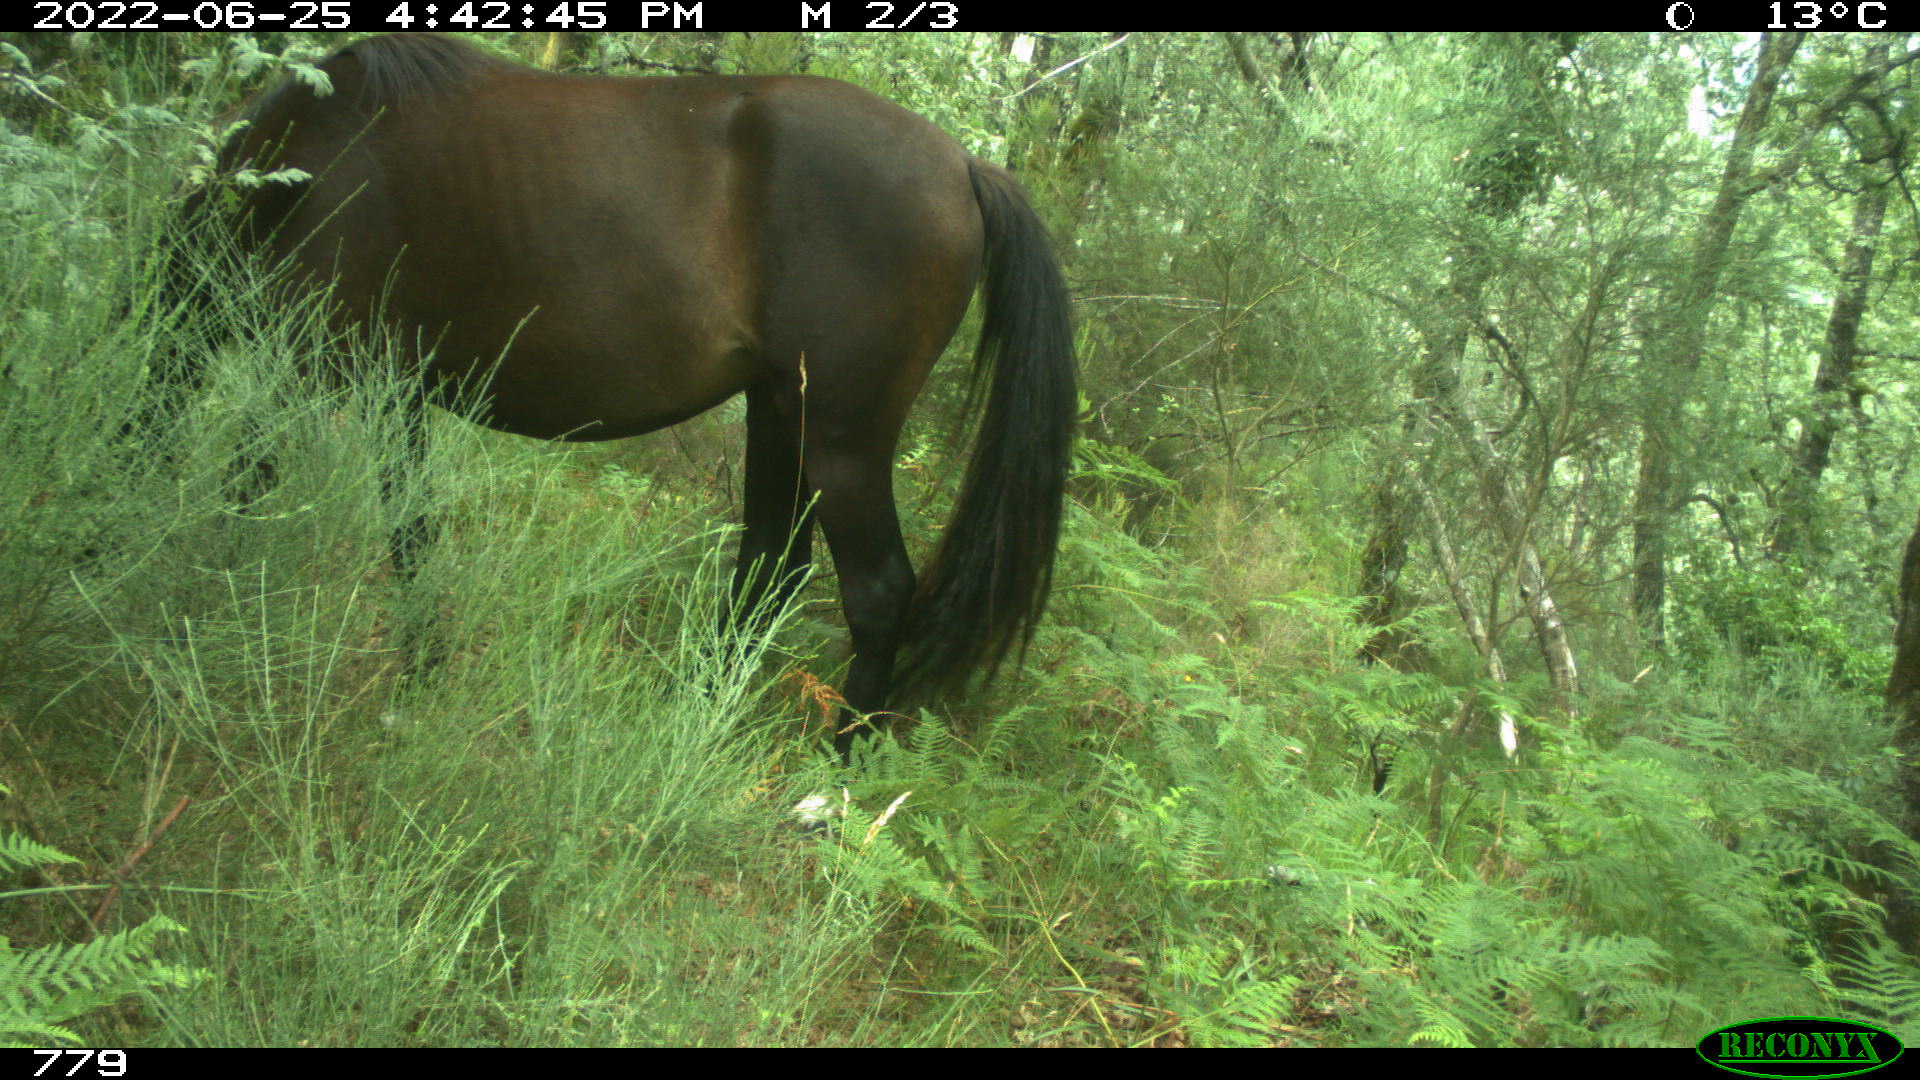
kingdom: Animalia
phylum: Chordata
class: Mammalia
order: Perissodactyla
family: Equidae
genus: Equus
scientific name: Equus caballus
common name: Horse
